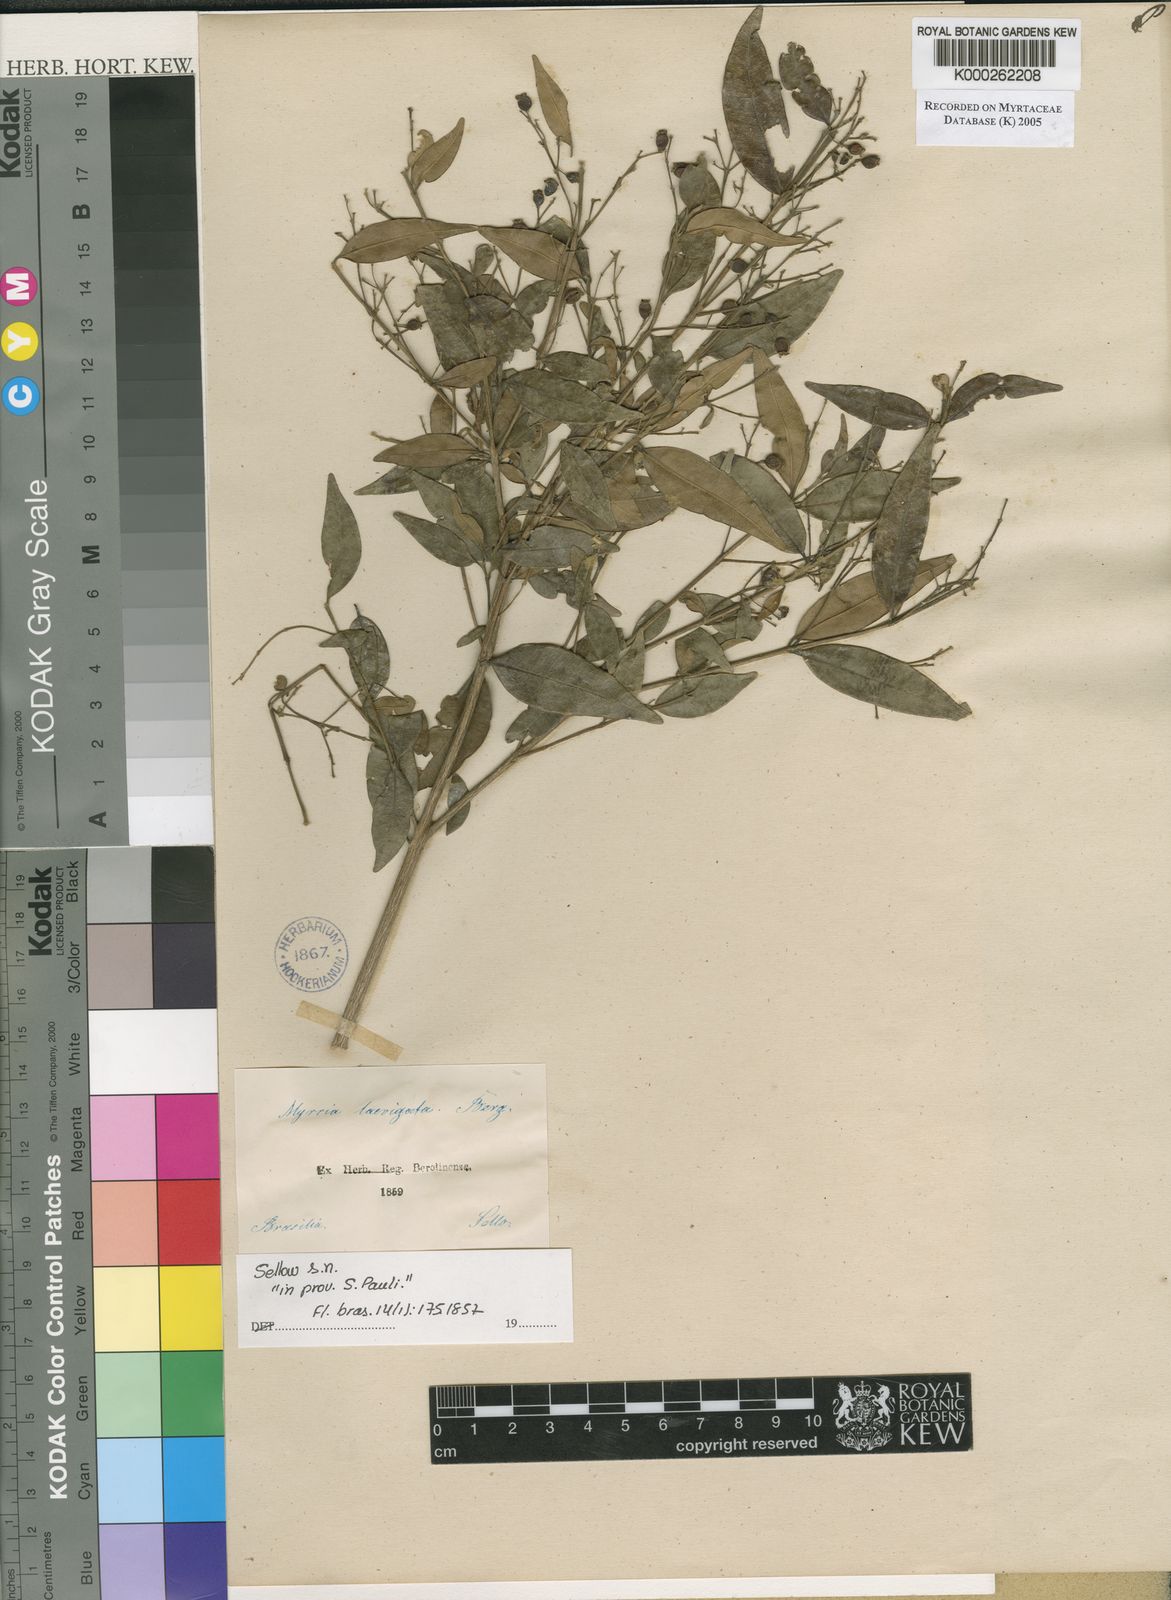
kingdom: Plantae
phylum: Tracheophyta
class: Magnoliopsida
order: Myrtales
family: Myrtaceae
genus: Myrcia
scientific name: Myrcia splendens
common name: Surinam cherry
